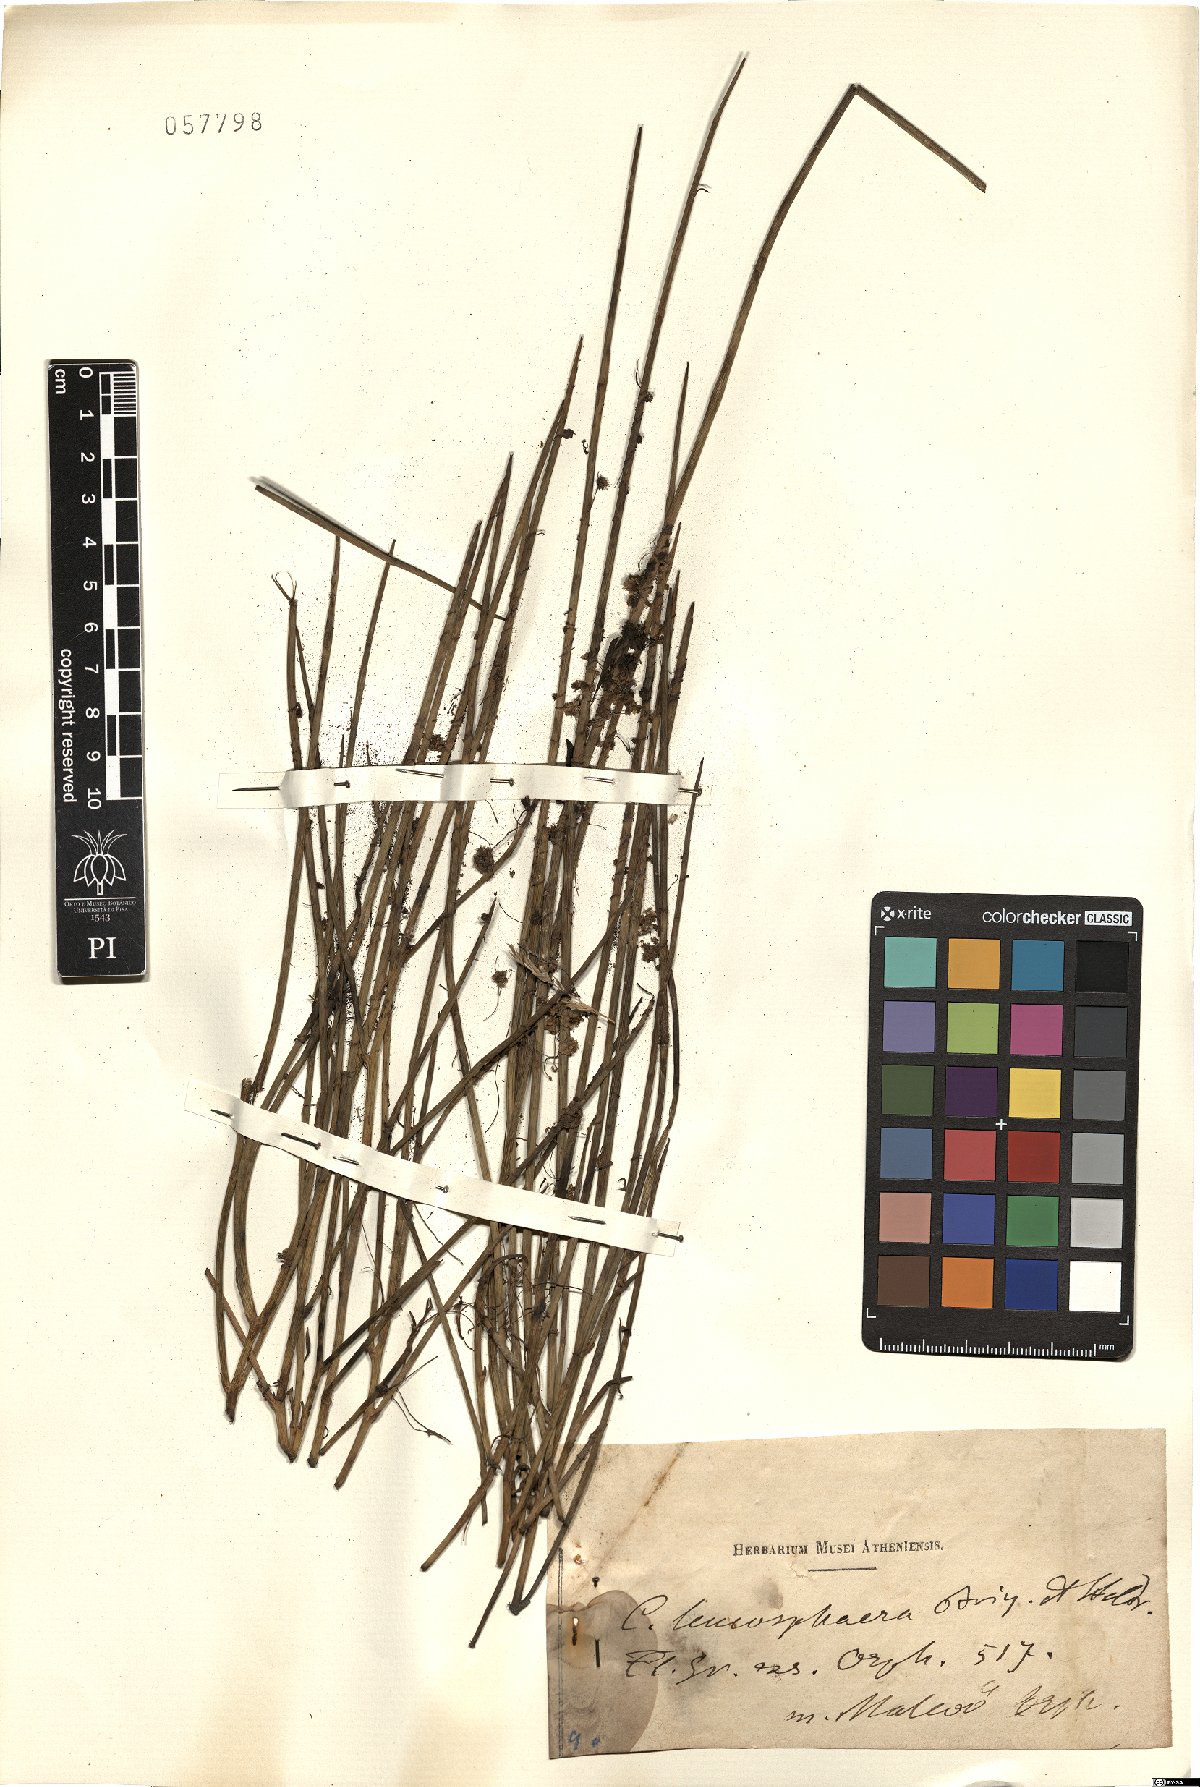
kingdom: Plantae
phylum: Tracheophyta
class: Magnoliopsida
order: Solanales
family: Convolvulaceae
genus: Cuscuta
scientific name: Cuscuta approximata
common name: Alfalfa dodder
